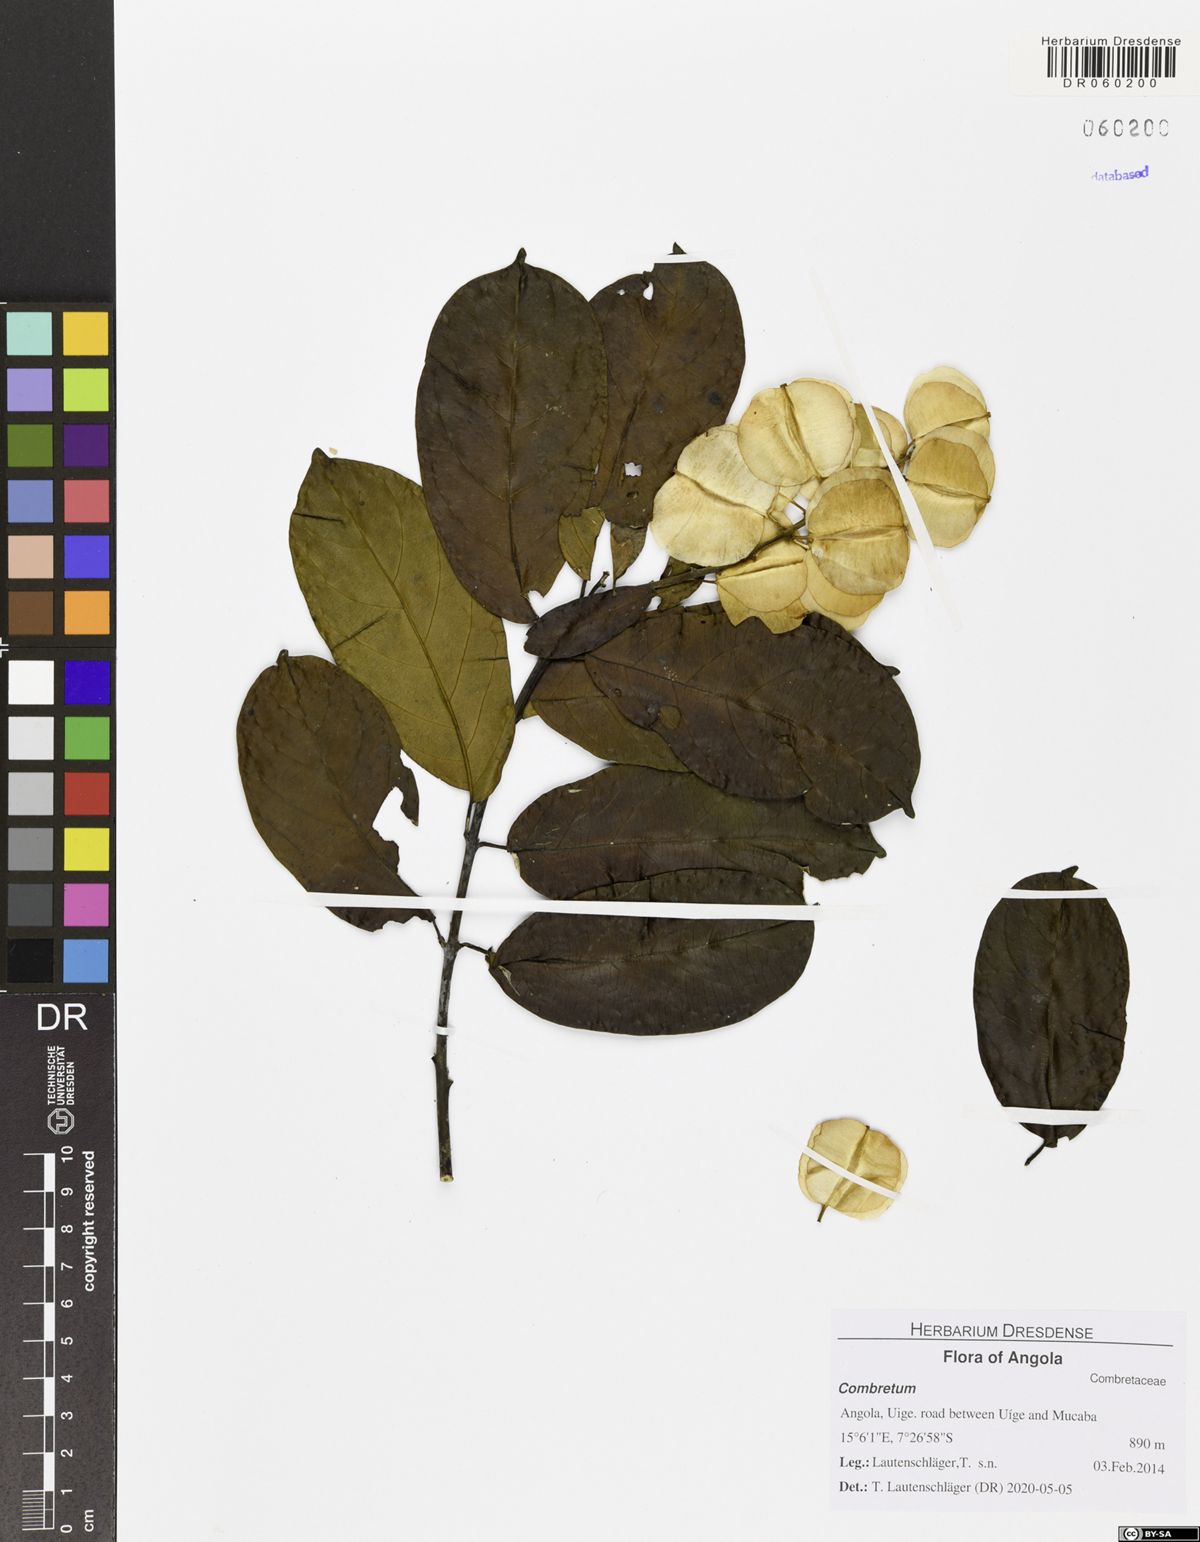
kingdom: Plantae
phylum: Tracheophyta
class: Magnoliopsida
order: Myrtales
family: Combretaceae
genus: Combretum
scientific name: Combretum
